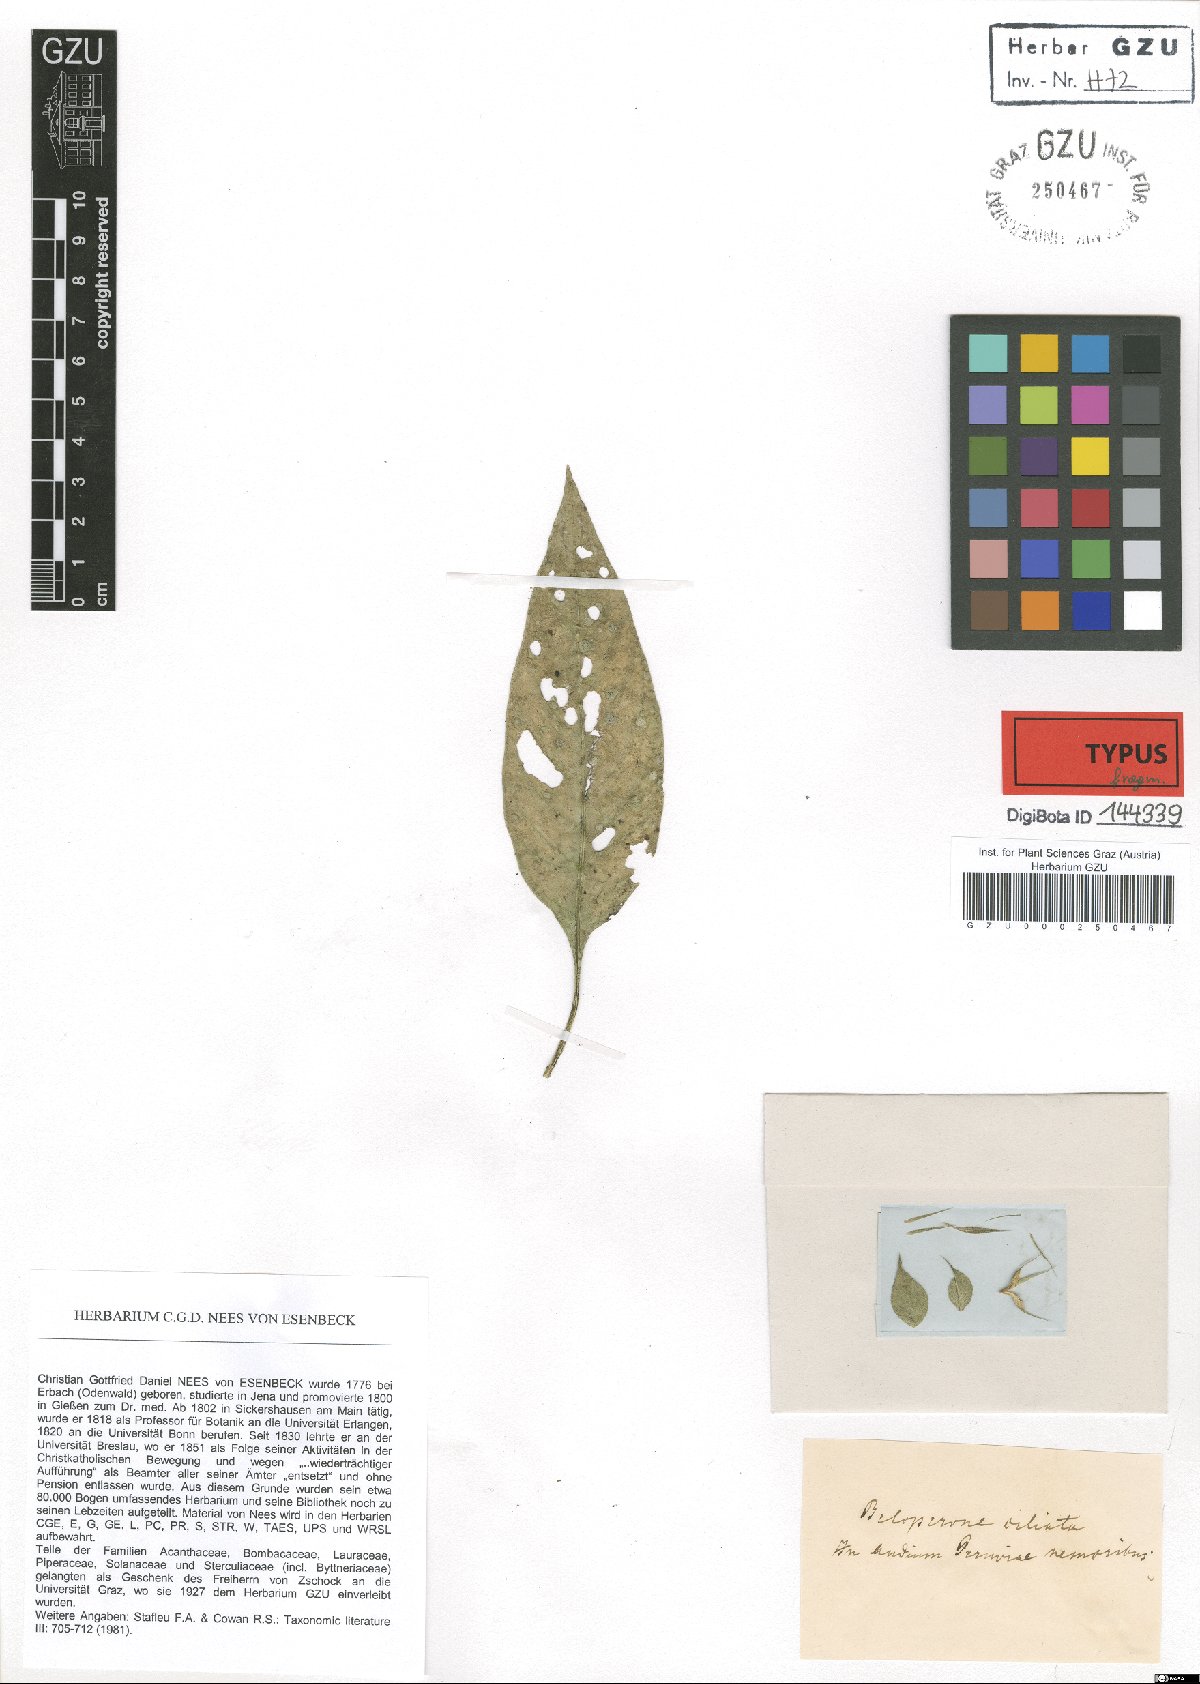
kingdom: Plantae
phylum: Tracheophyta
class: Magnoliopsida
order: Lamiales
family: Acanthaceae
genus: Justicia
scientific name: Justicia radicans
